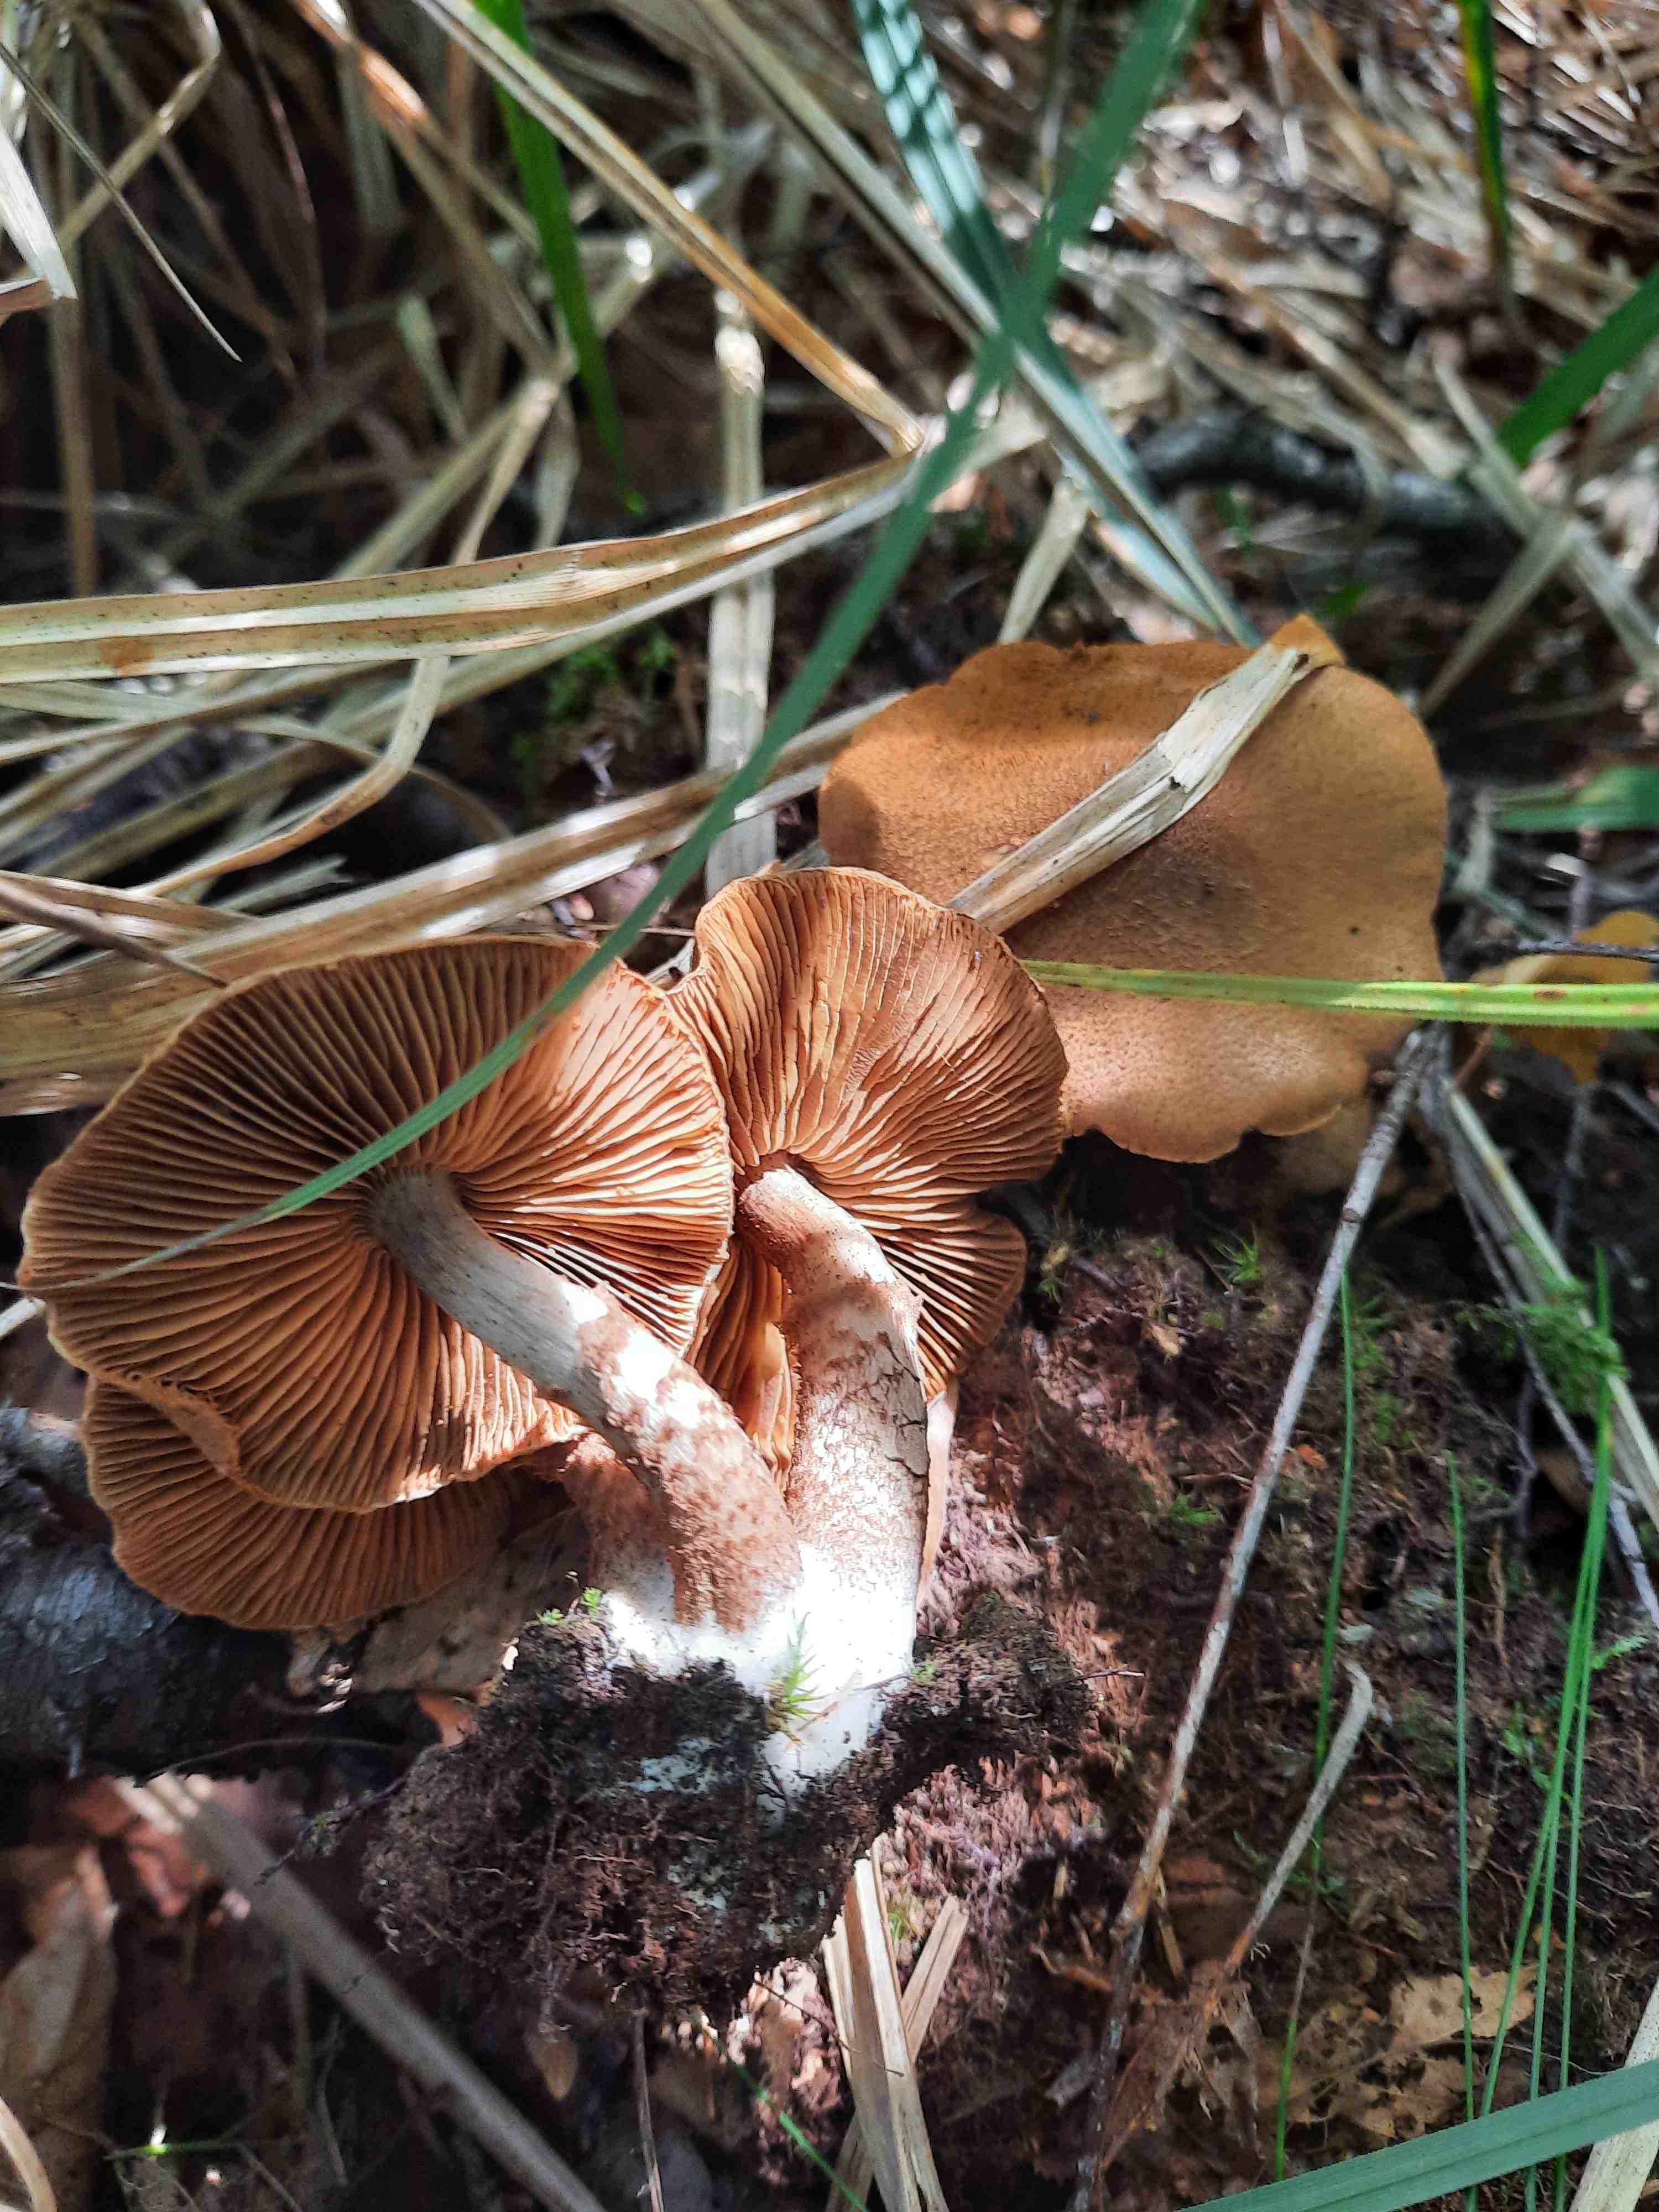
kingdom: Fungi
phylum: Basidiomycota
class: Agaricomycetes
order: Agaricales
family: Cortinariaceae
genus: Cortinarius
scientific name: Cortinarius pholideus
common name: brunskællet slørhat
